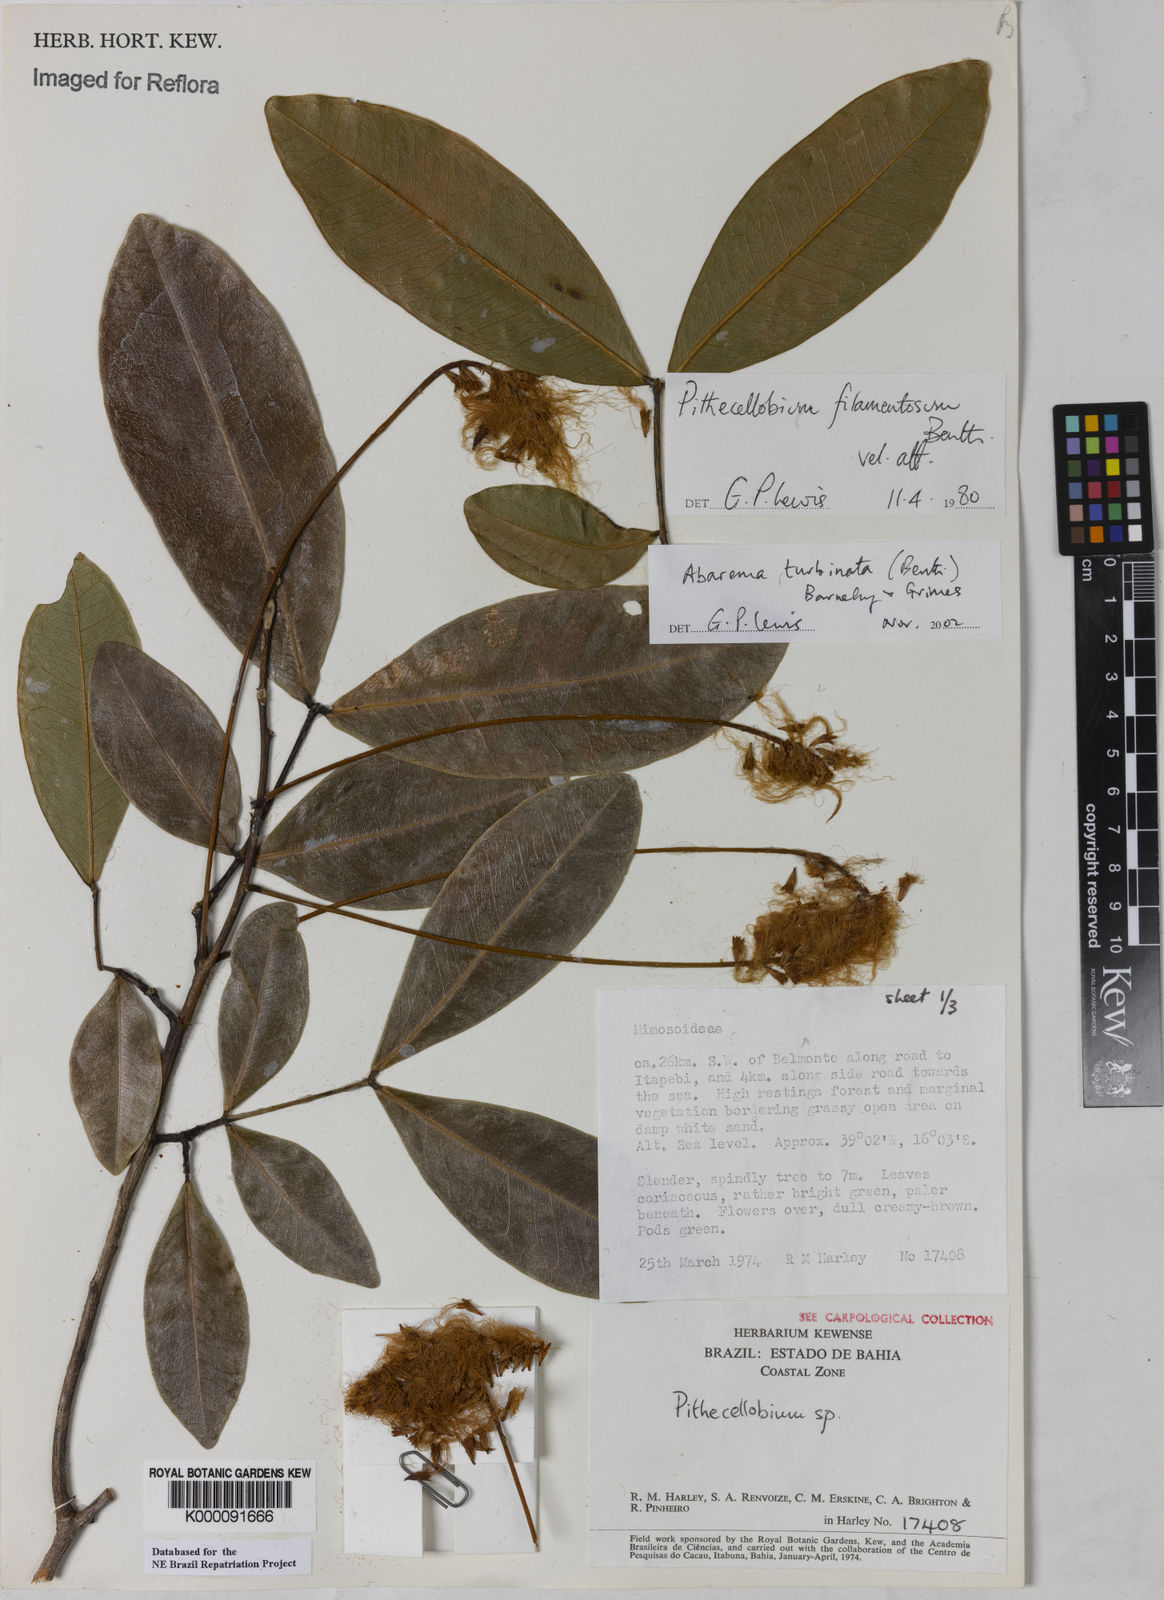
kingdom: Plantae
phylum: Tracheophyta
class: Magnoliopsida
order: Fabales
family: Fabaceae
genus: Jupunba
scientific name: Jupunba turbinata
